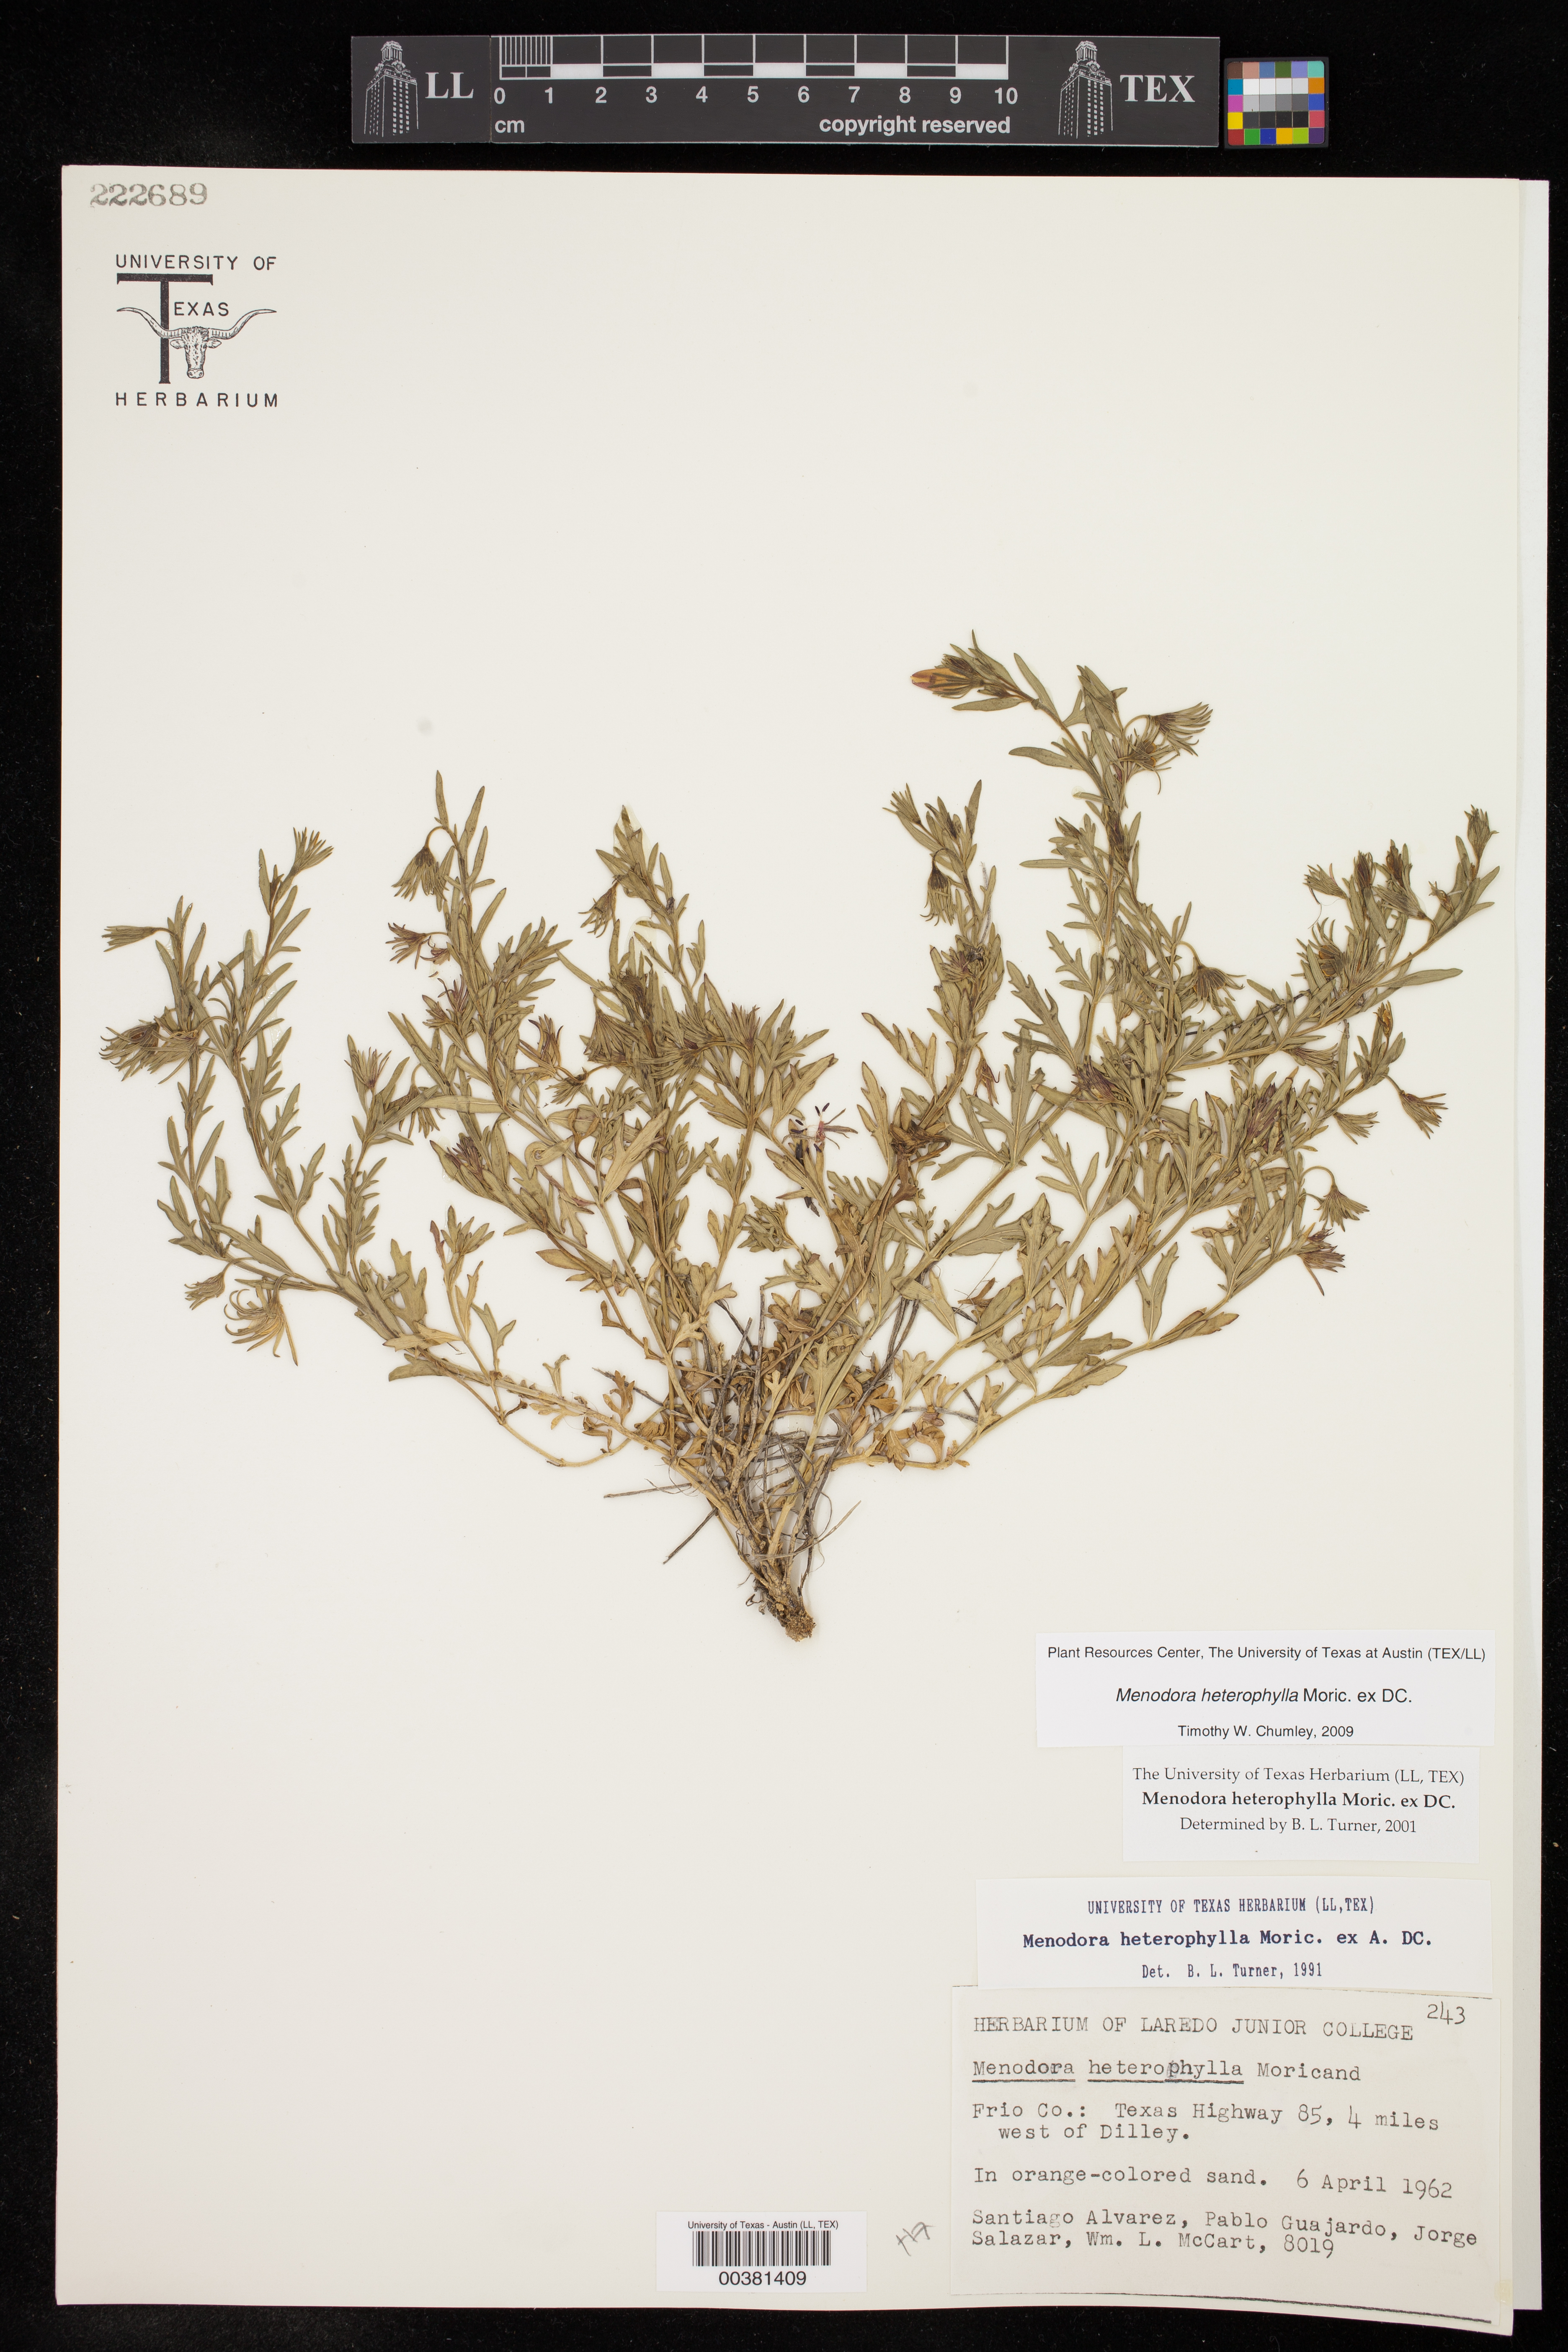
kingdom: Plantae
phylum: Tracheophyta
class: Magnoliopsida
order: Lamiales
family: Oleaceae
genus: Menodora
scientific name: Menodora heterophylla
